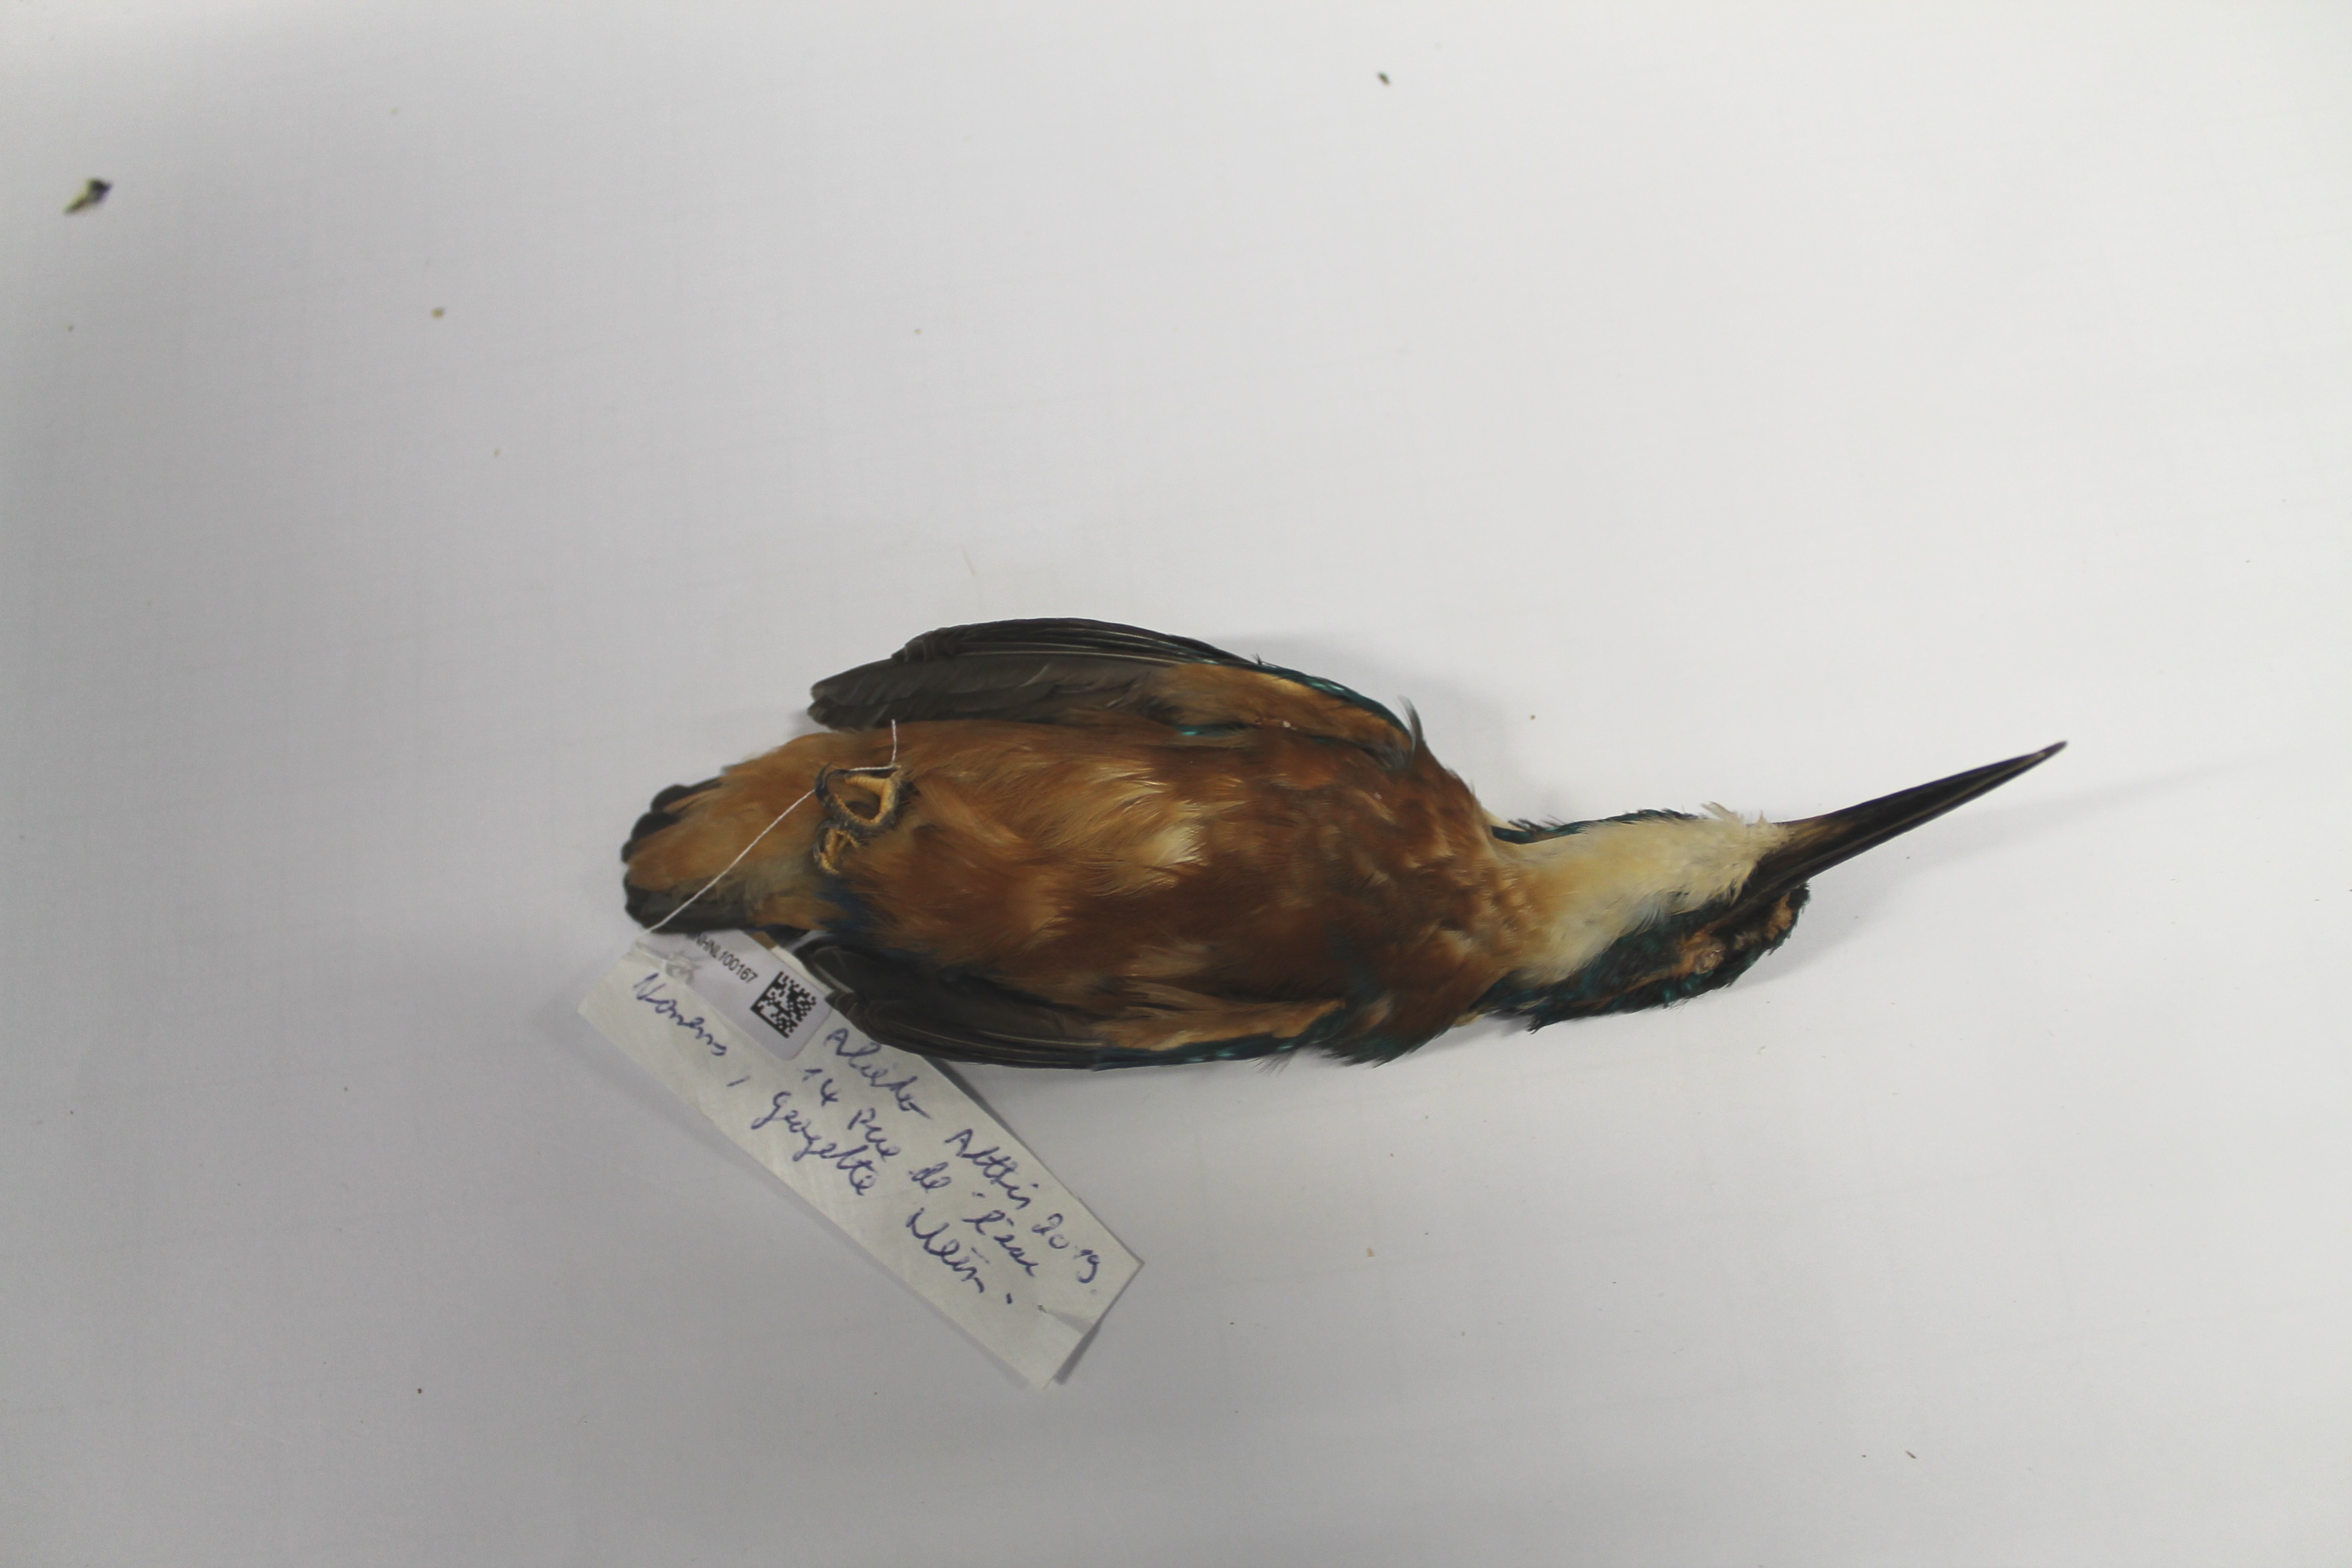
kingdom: Animalia
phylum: Chordata
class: Aves
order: Coraciiformes
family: Alcedinidae
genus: Alcedo
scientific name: Alcedo atthis
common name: Common kingfisher
